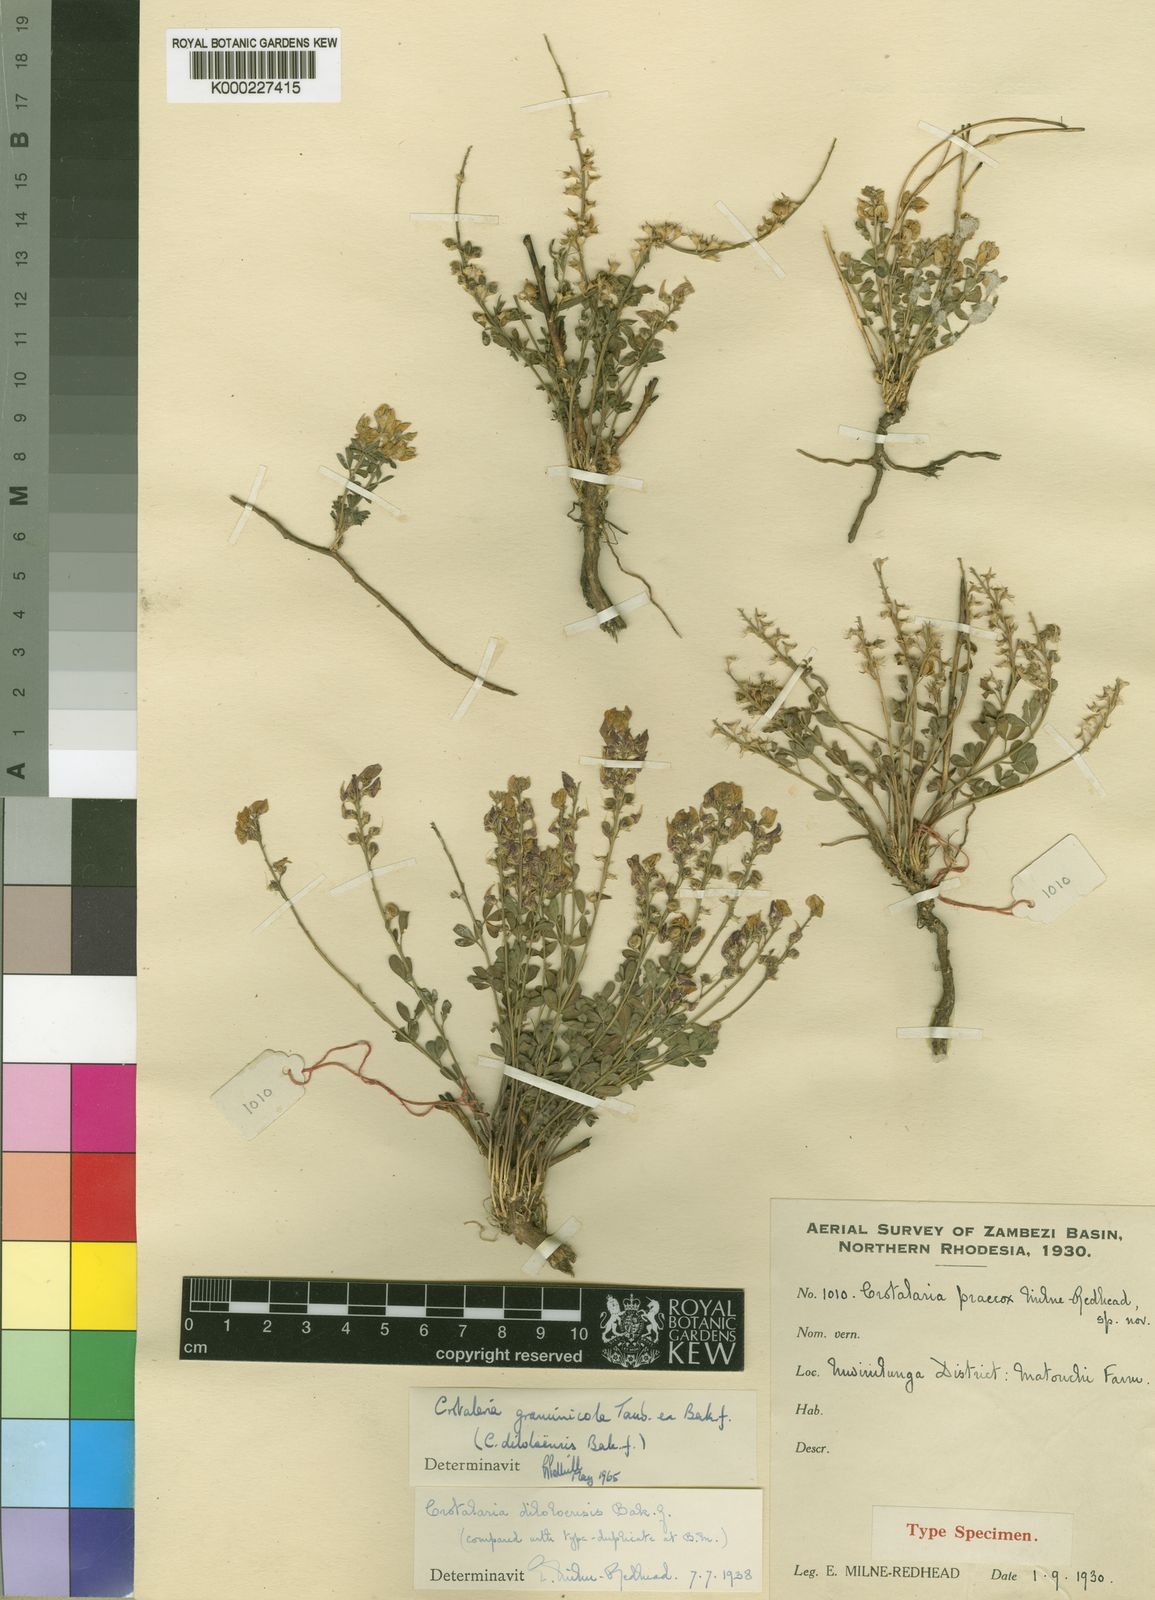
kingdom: Plantae
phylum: Tracheophyta
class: Magnoliopsida
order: Fabales
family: Fabaceae
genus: Crotalaria
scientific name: Crotalaria graminicola
